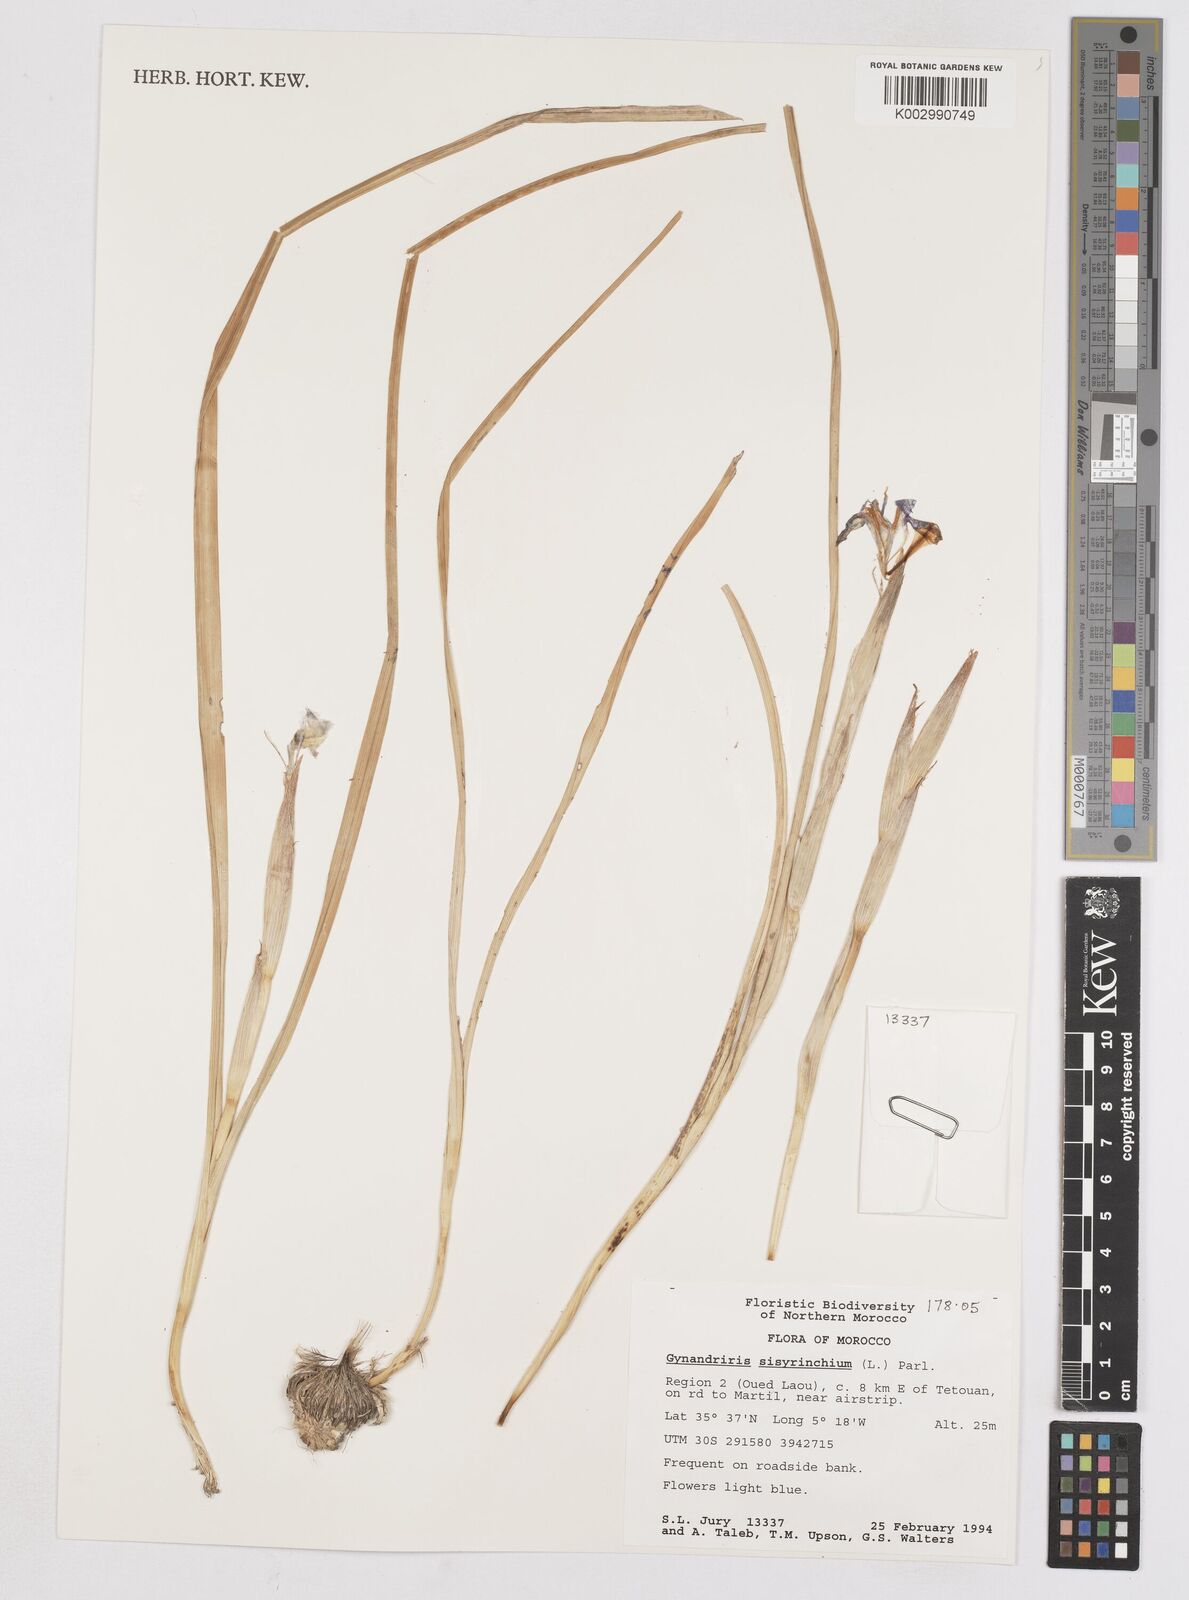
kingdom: Plantae
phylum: Tracheophyta
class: Liliopsida
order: Asparagales
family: Iridaceae
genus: Moraea
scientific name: Moraea sisyrinchium
